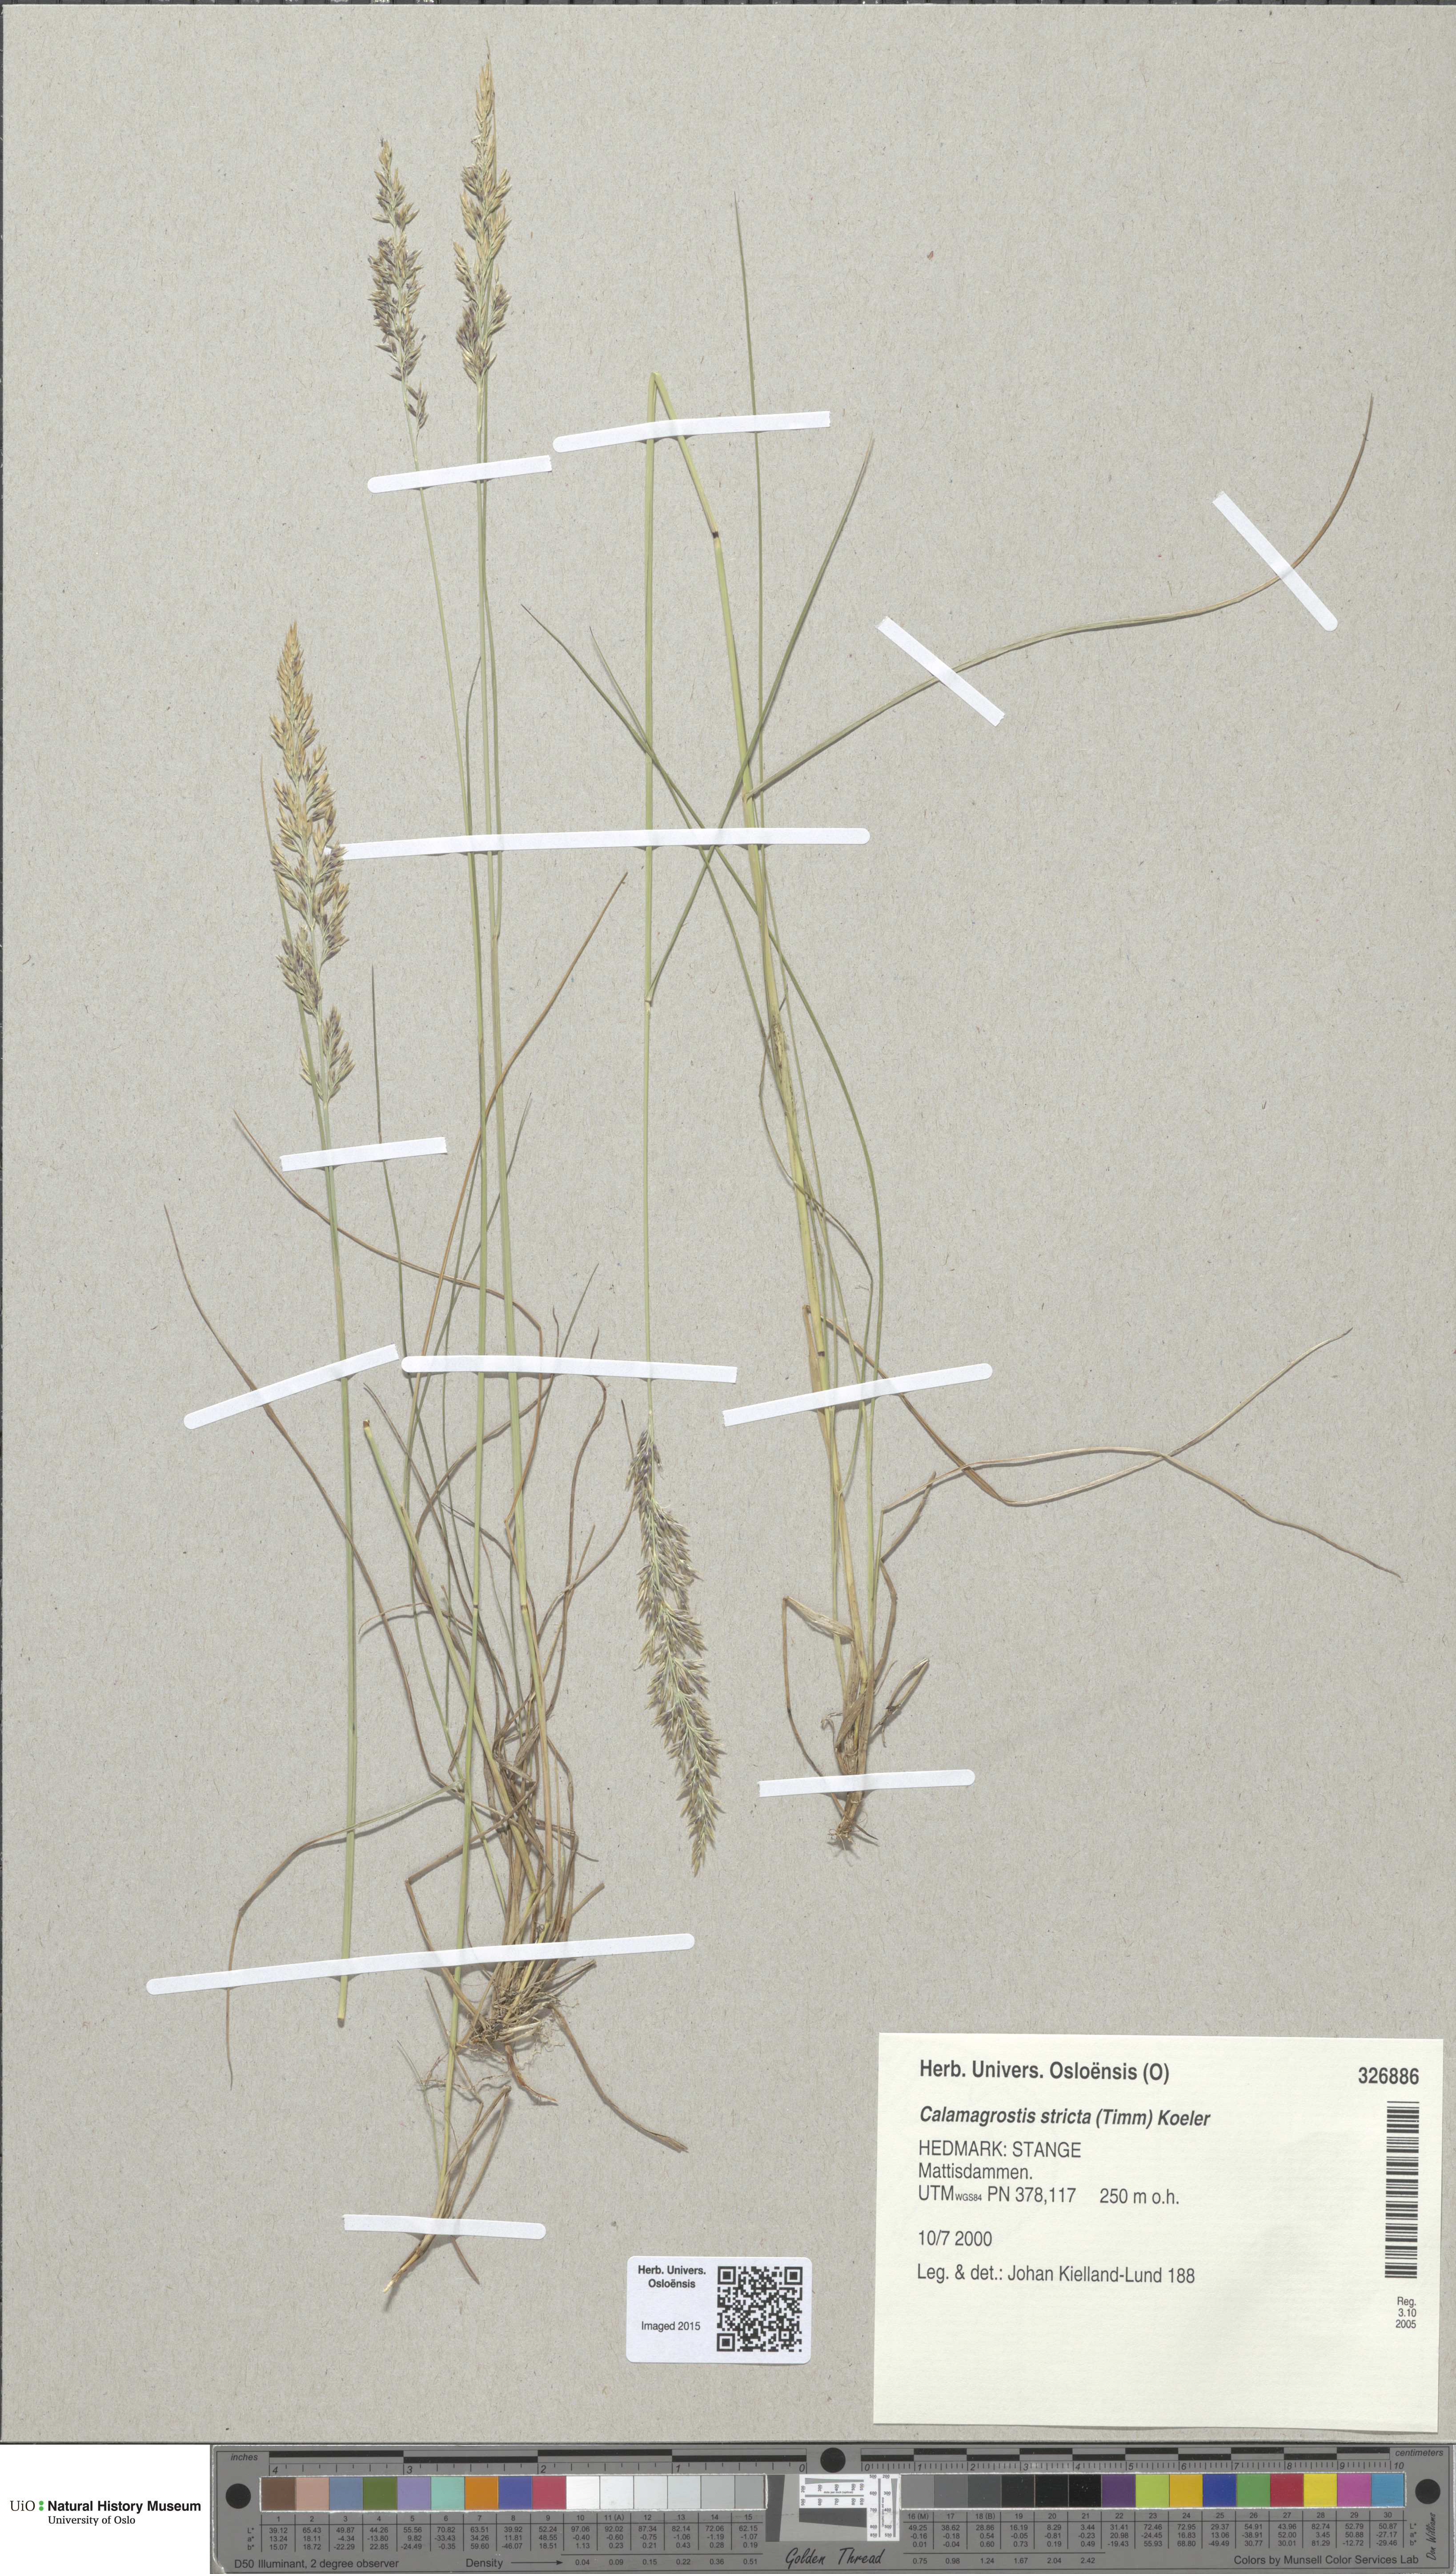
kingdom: Plantae
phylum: Tracheophyta
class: Liliopsida
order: Poales
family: Poaceae
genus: Achnatherum
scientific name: Achnatherum calamagrostis
